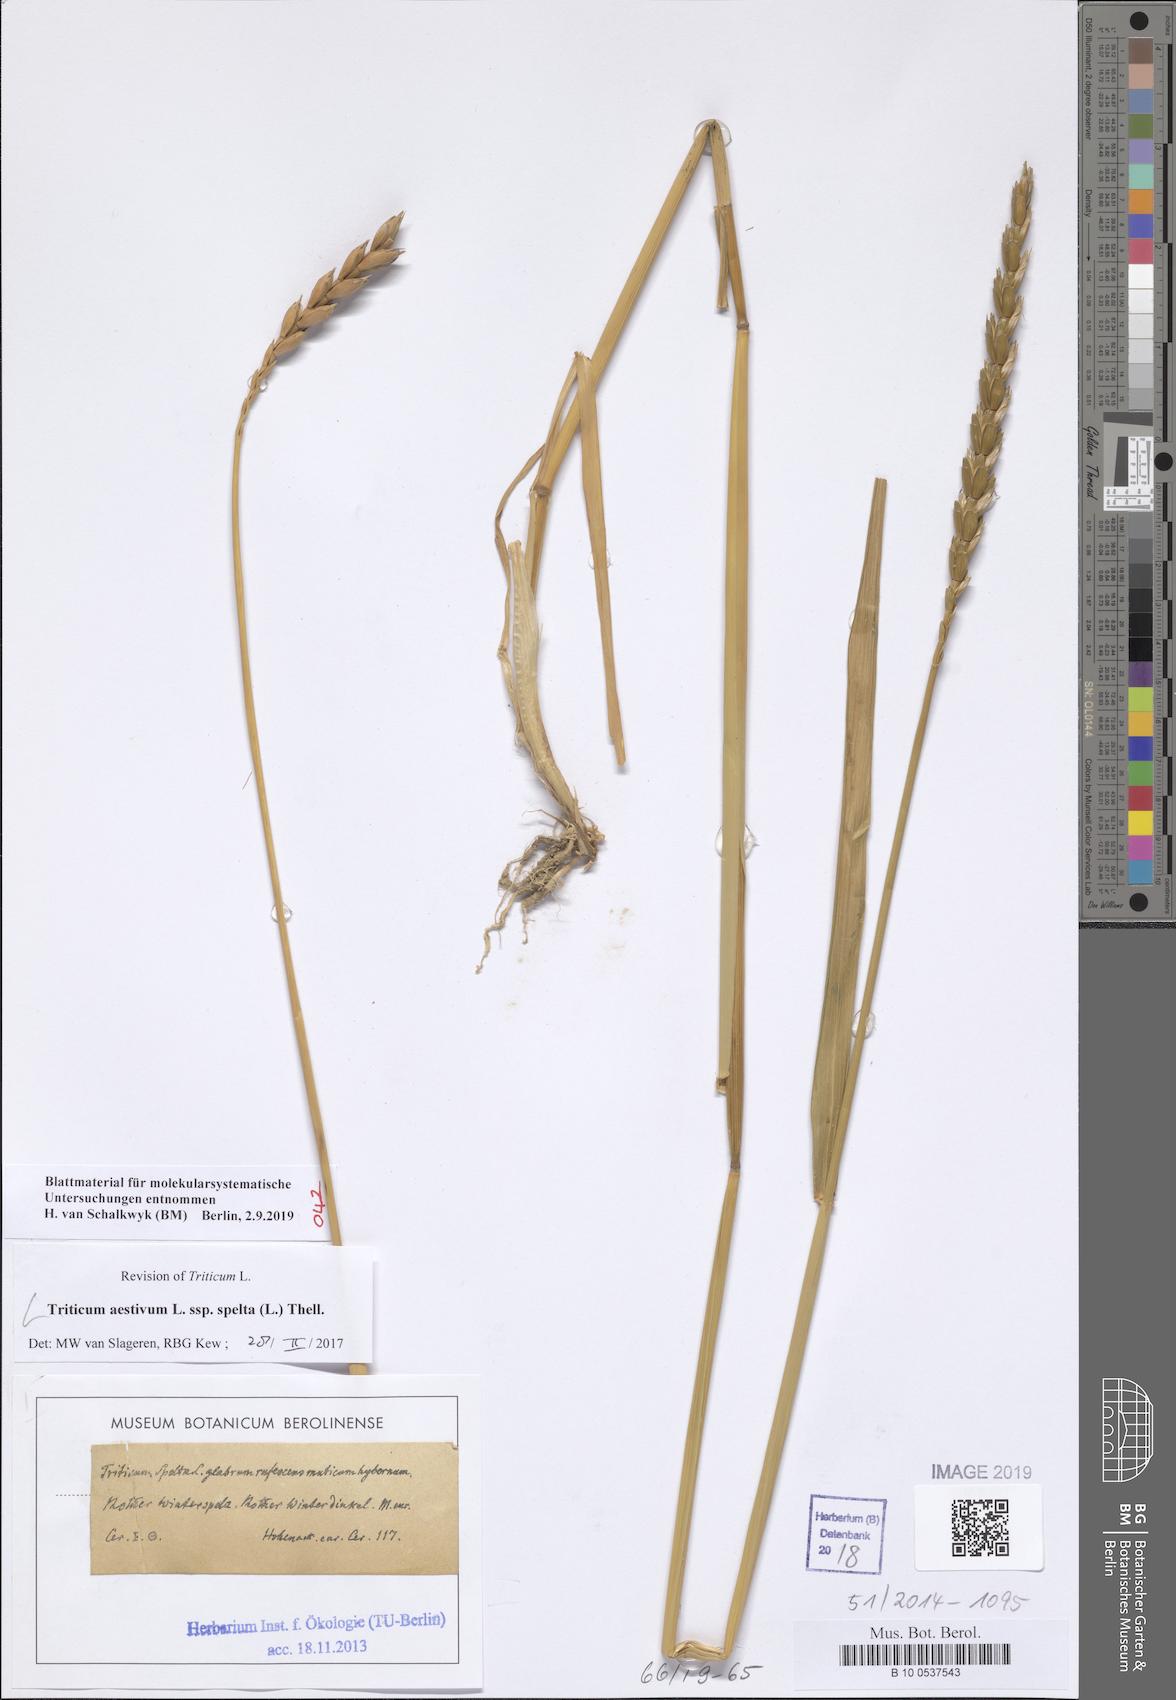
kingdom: Plantae
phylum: Tracheophyta
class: Liliopsida
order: Poales
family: Poaceae
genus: Triticum
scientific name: Triticum aestivum
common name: Common wheat
